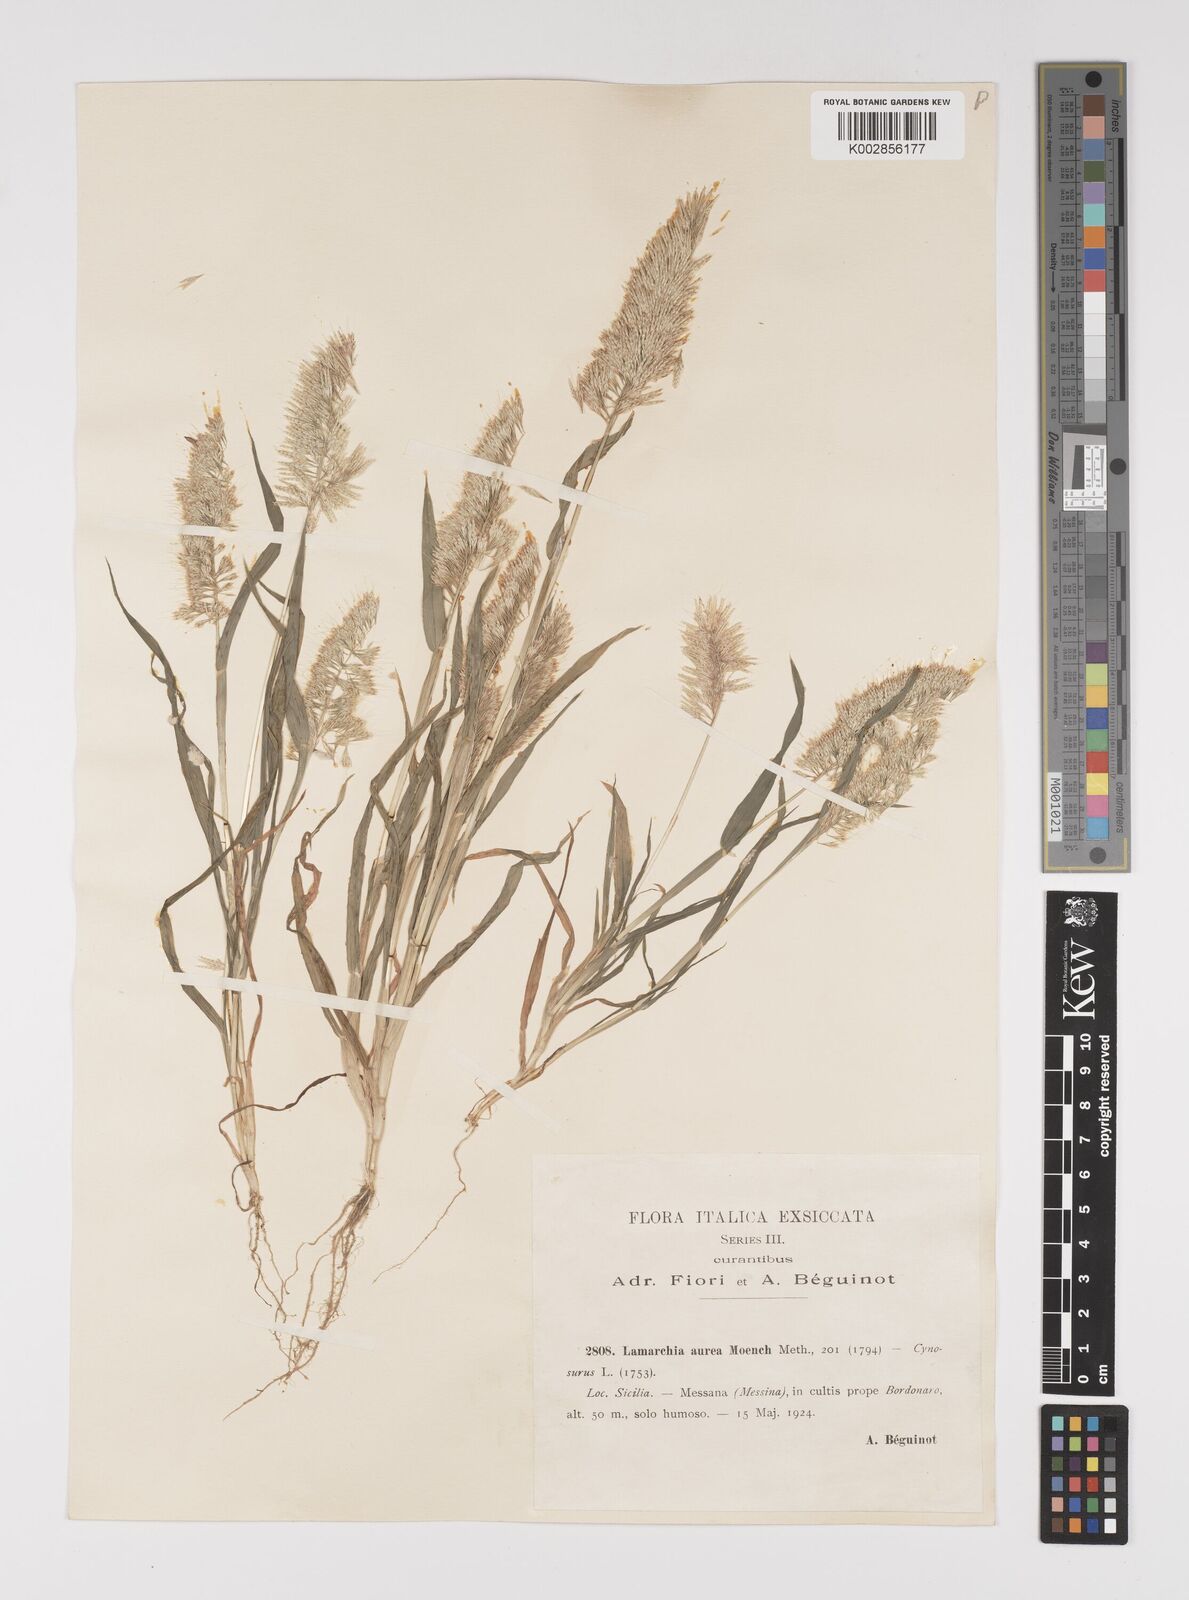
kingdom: Plantae
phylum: Tracheophyta
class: Liliopsida
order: Poales
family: Poaceae
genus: Lamarckia
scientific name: Lamarckia aurea
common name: Golden dog's-tail
